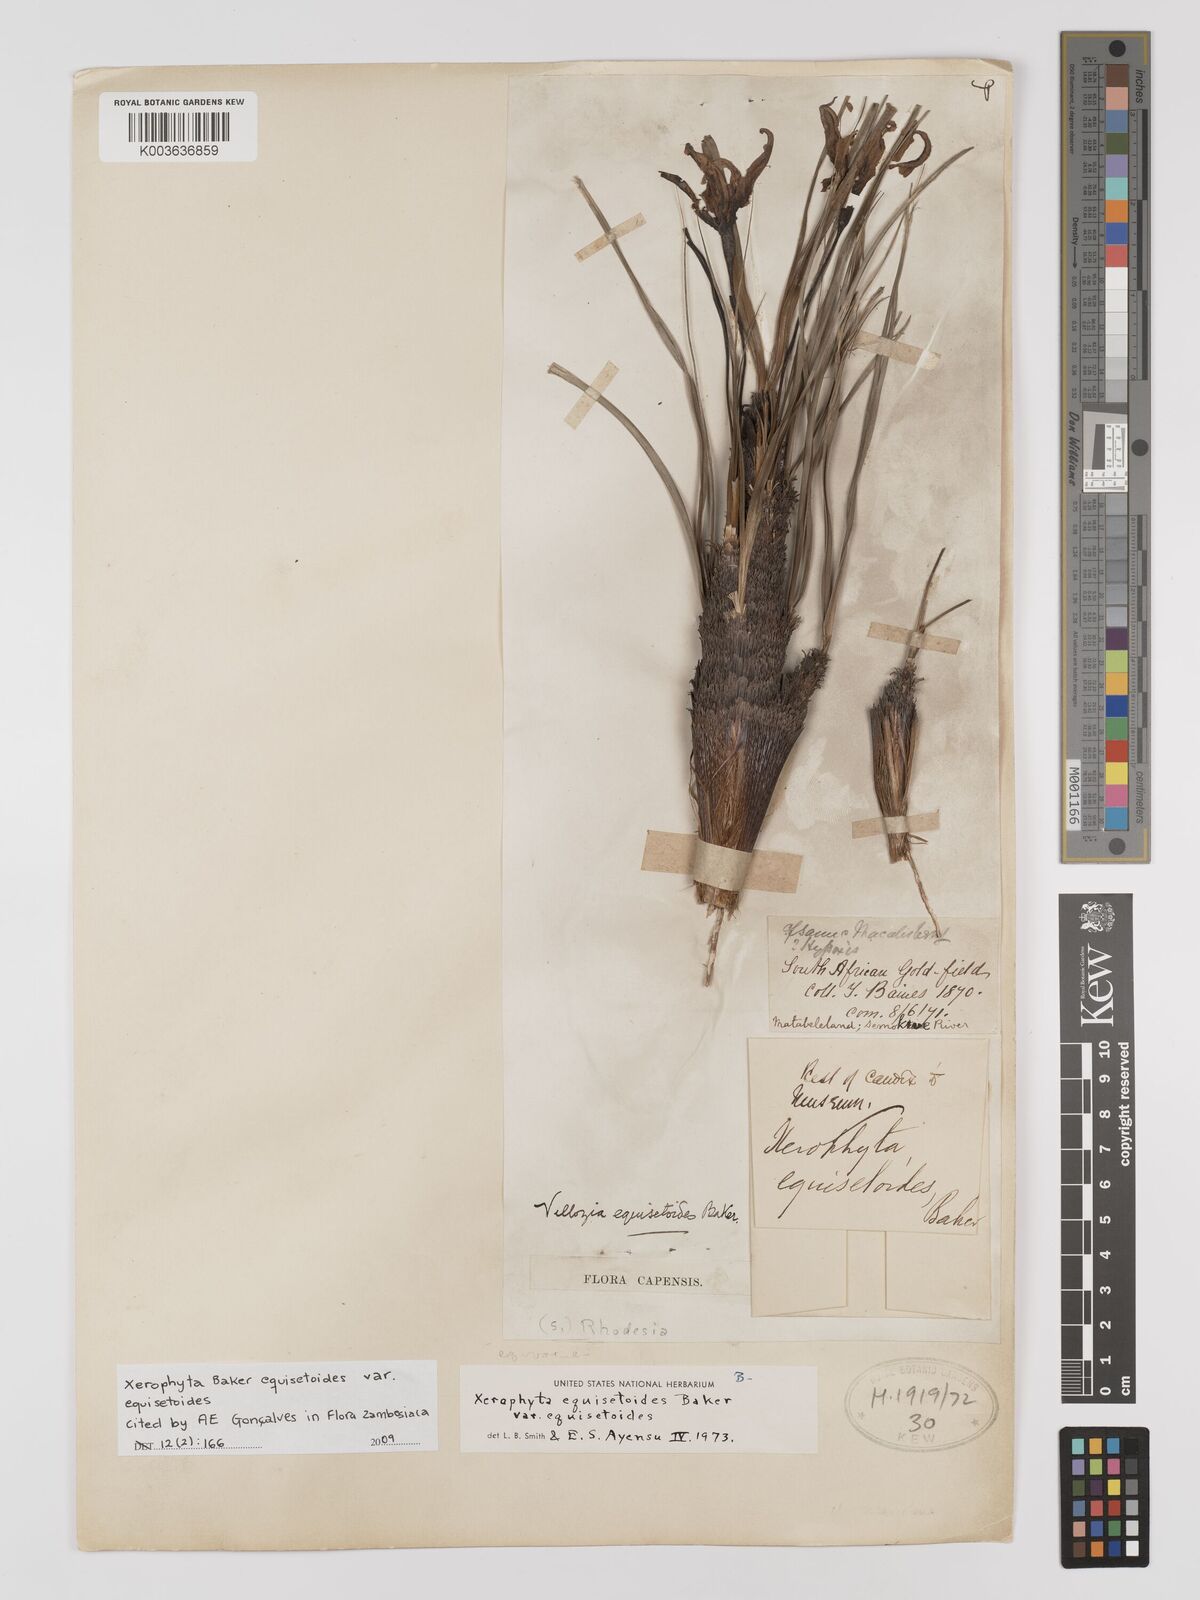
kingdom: Plantae
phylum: Tracheophyta
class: Liliopsida
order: Pandanales
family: Velloziaceae
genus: Xerophyta
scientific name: Xerophyta equisetoides
